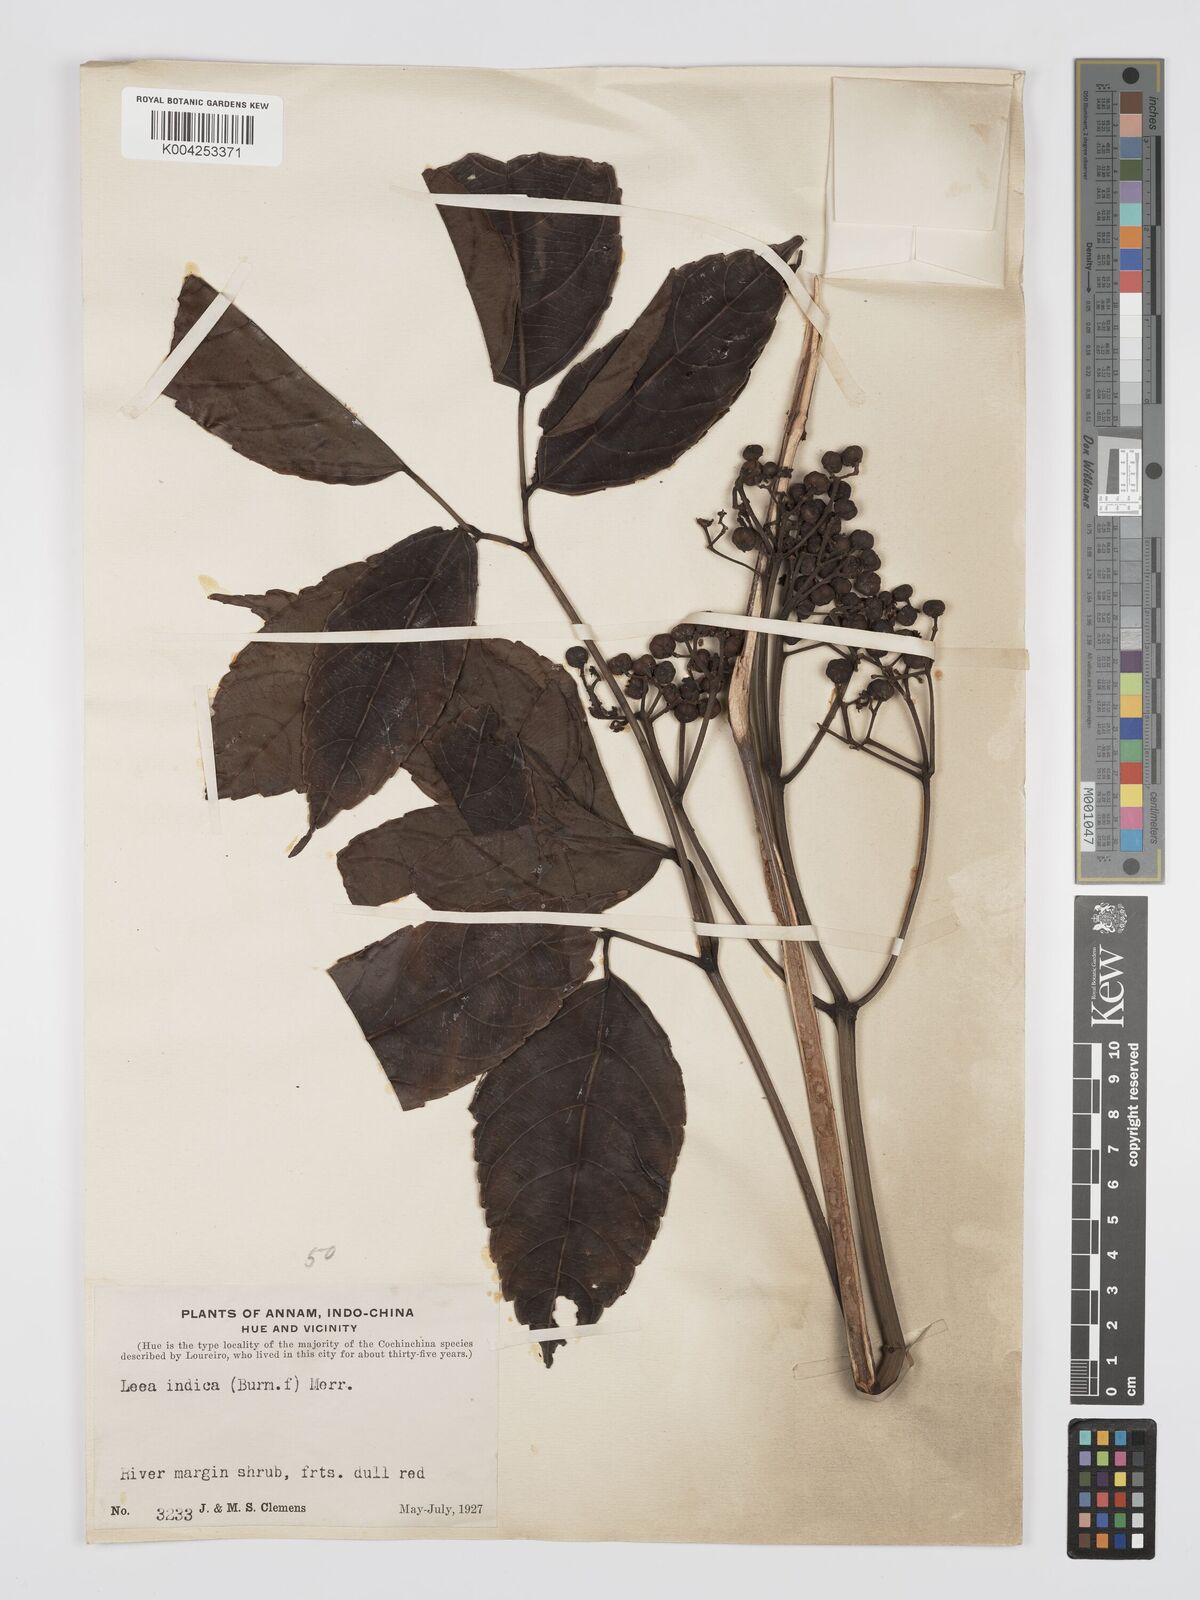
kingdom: Plantae
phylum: Tracheophyta
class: Magnoliopsida
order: Vitales
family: Vitaceae
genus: Leea
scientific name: Leea indica
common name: Bandicoot-berry
